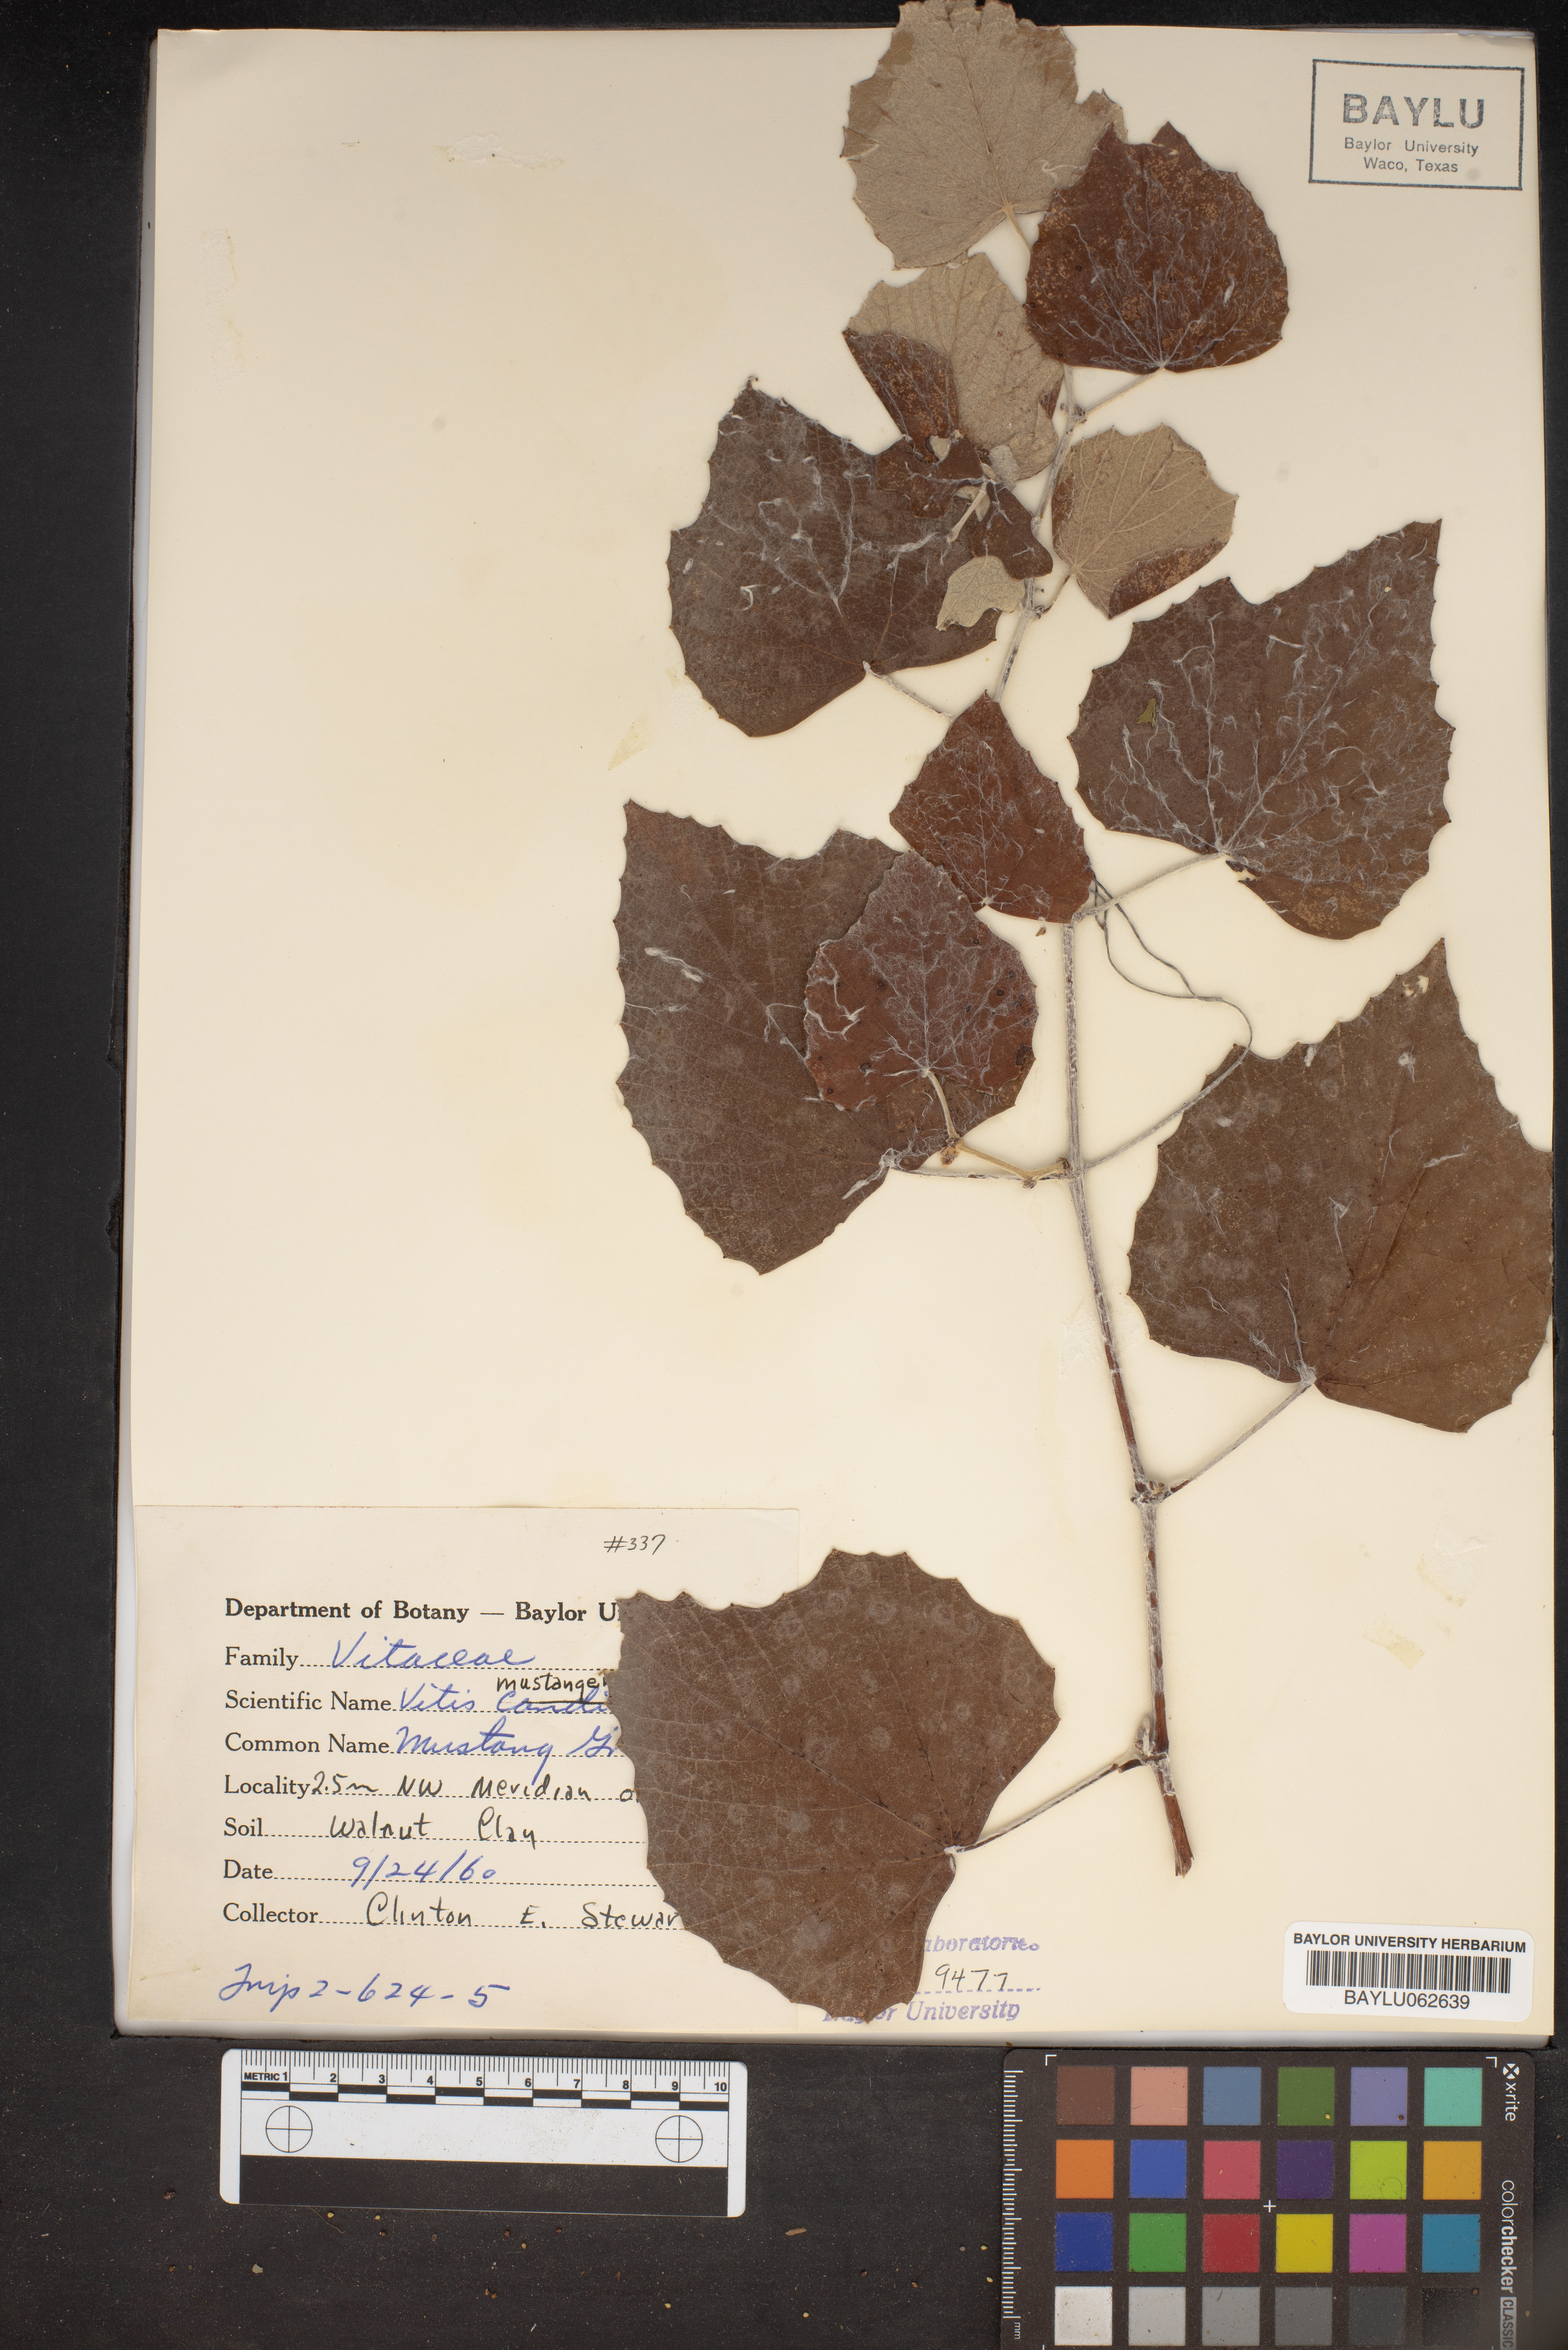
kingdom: Plantae
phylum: Tracheophyta
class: Magnoliopsida
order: Vitales
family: Vitaceae
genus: Vitis
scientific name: Vitis mustangensis
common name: Mustang grape
